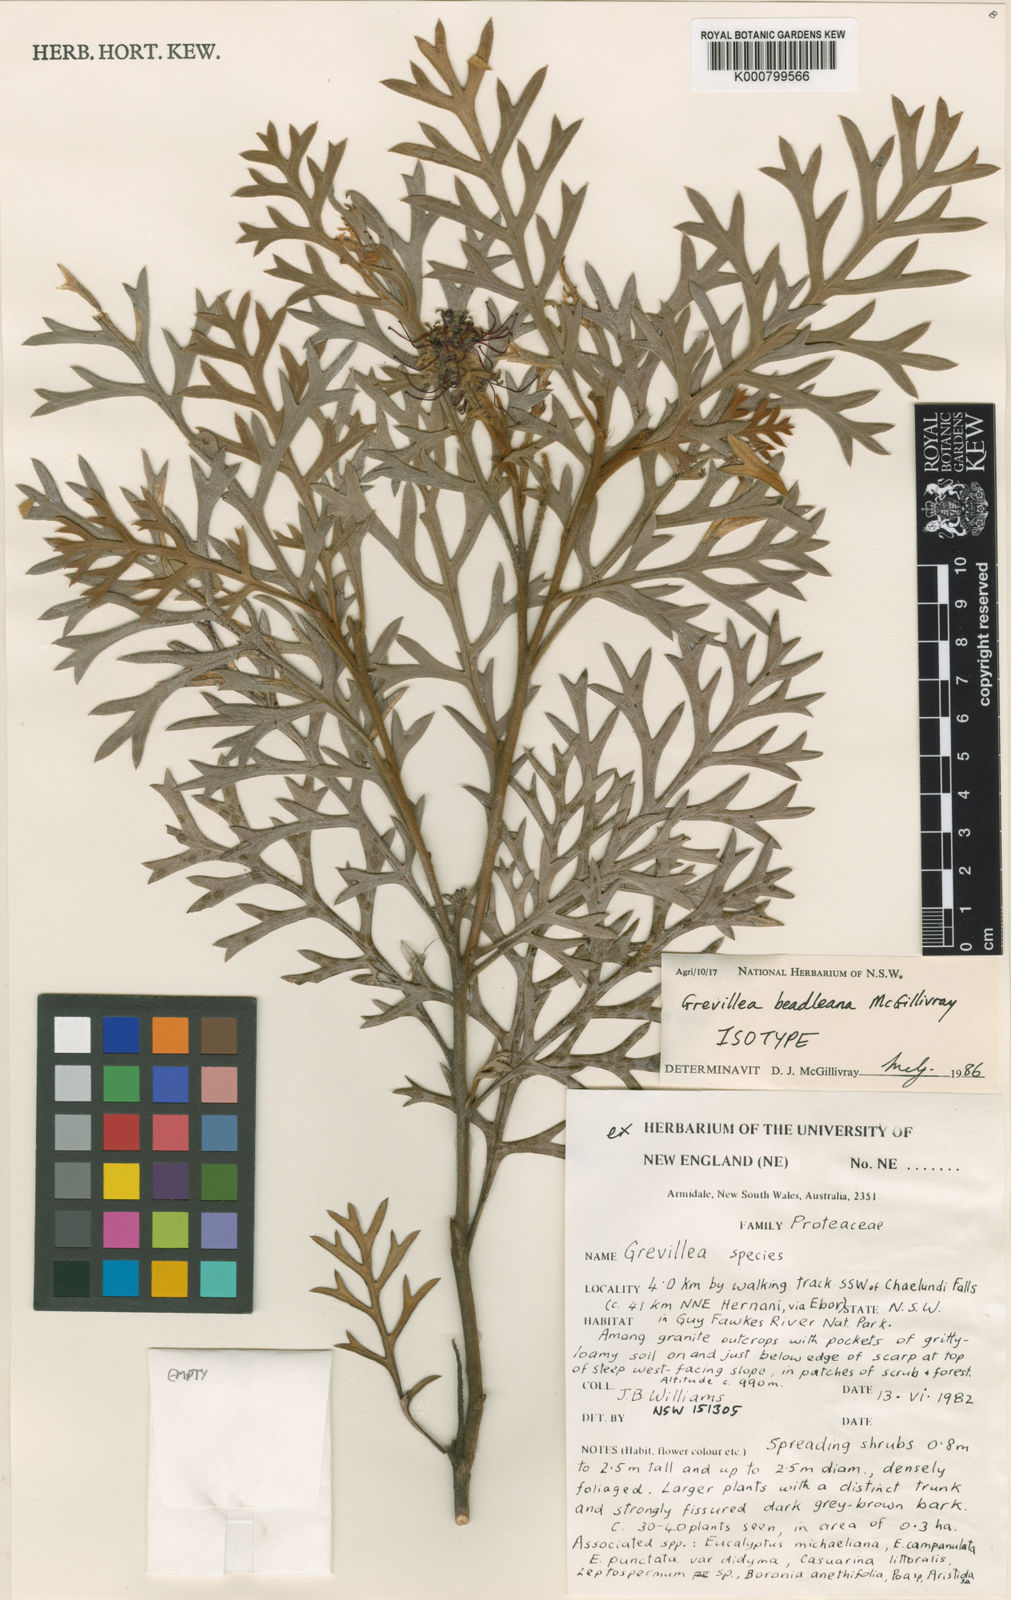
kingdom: Plantae
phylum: Tracheophyta
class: Magnoliopsida
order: Proteales
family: Proteaceae
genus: Grevillea
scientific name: Grevillea beadleana
